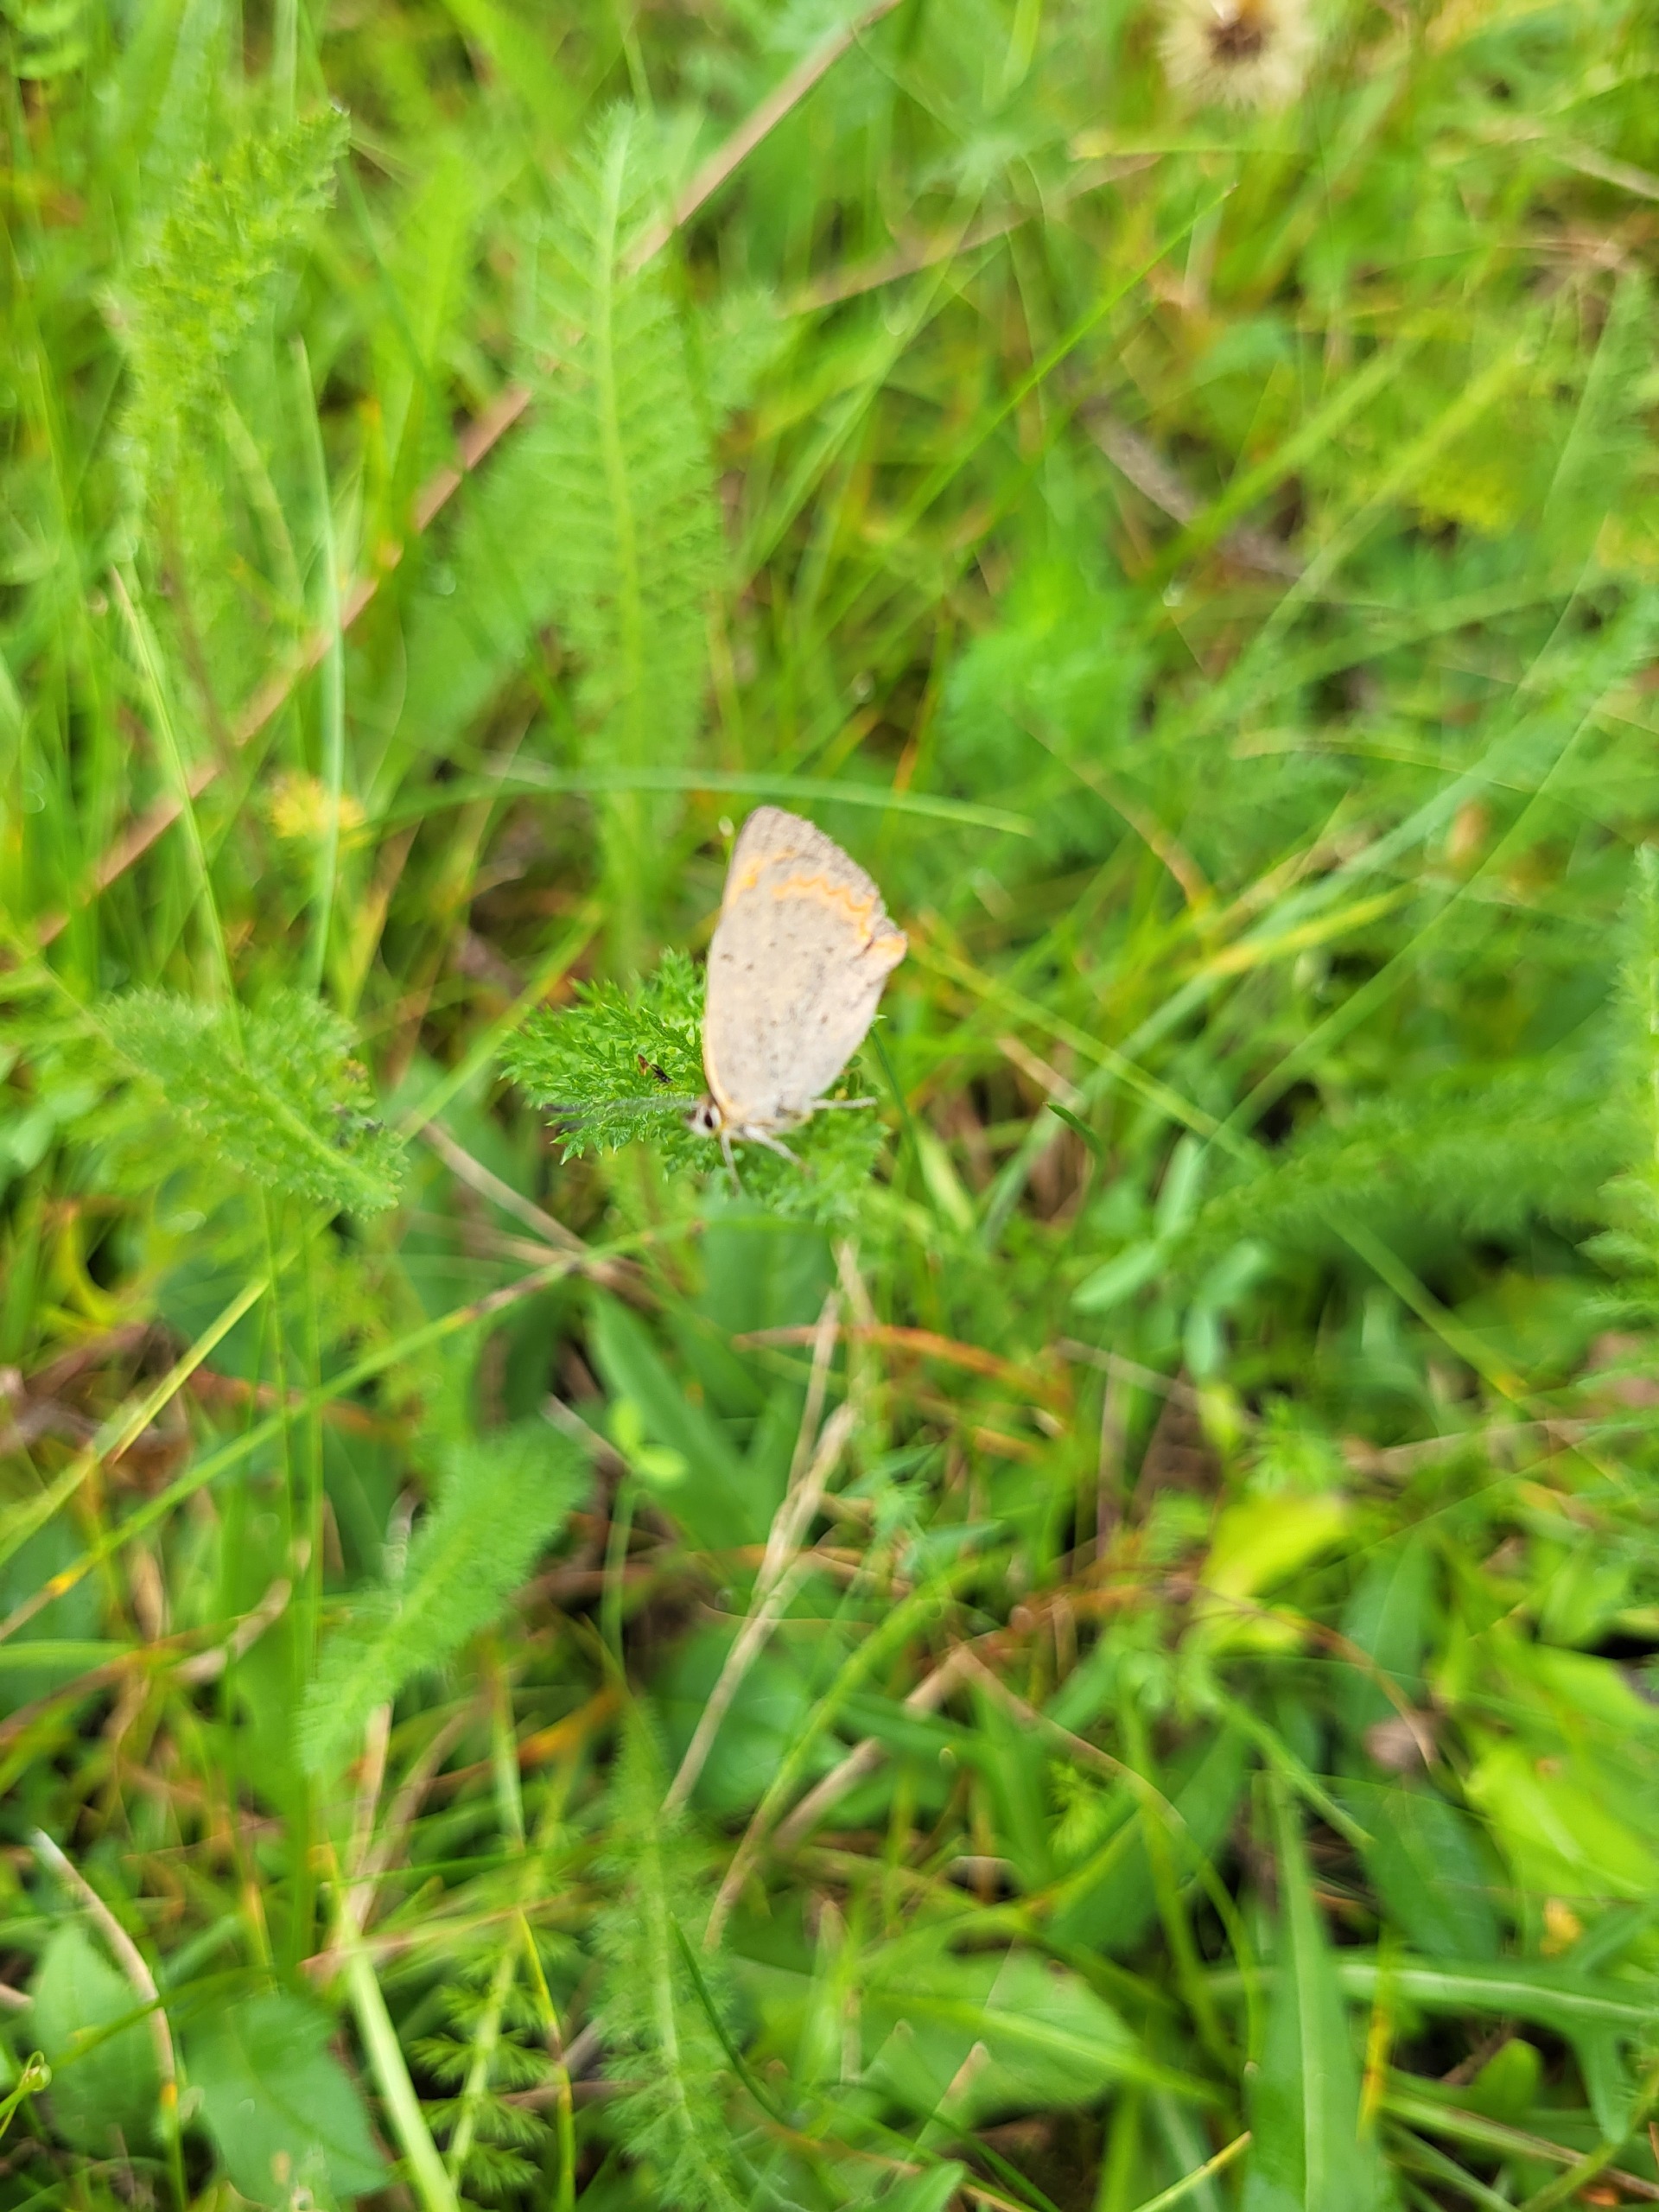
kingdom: Animalia
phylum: Arthropoda
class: Insecta
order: Lepidoptera
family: Lycaenidae
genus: Lycaena
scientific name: Lycaena phlaeas
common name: Lille ildfugl
